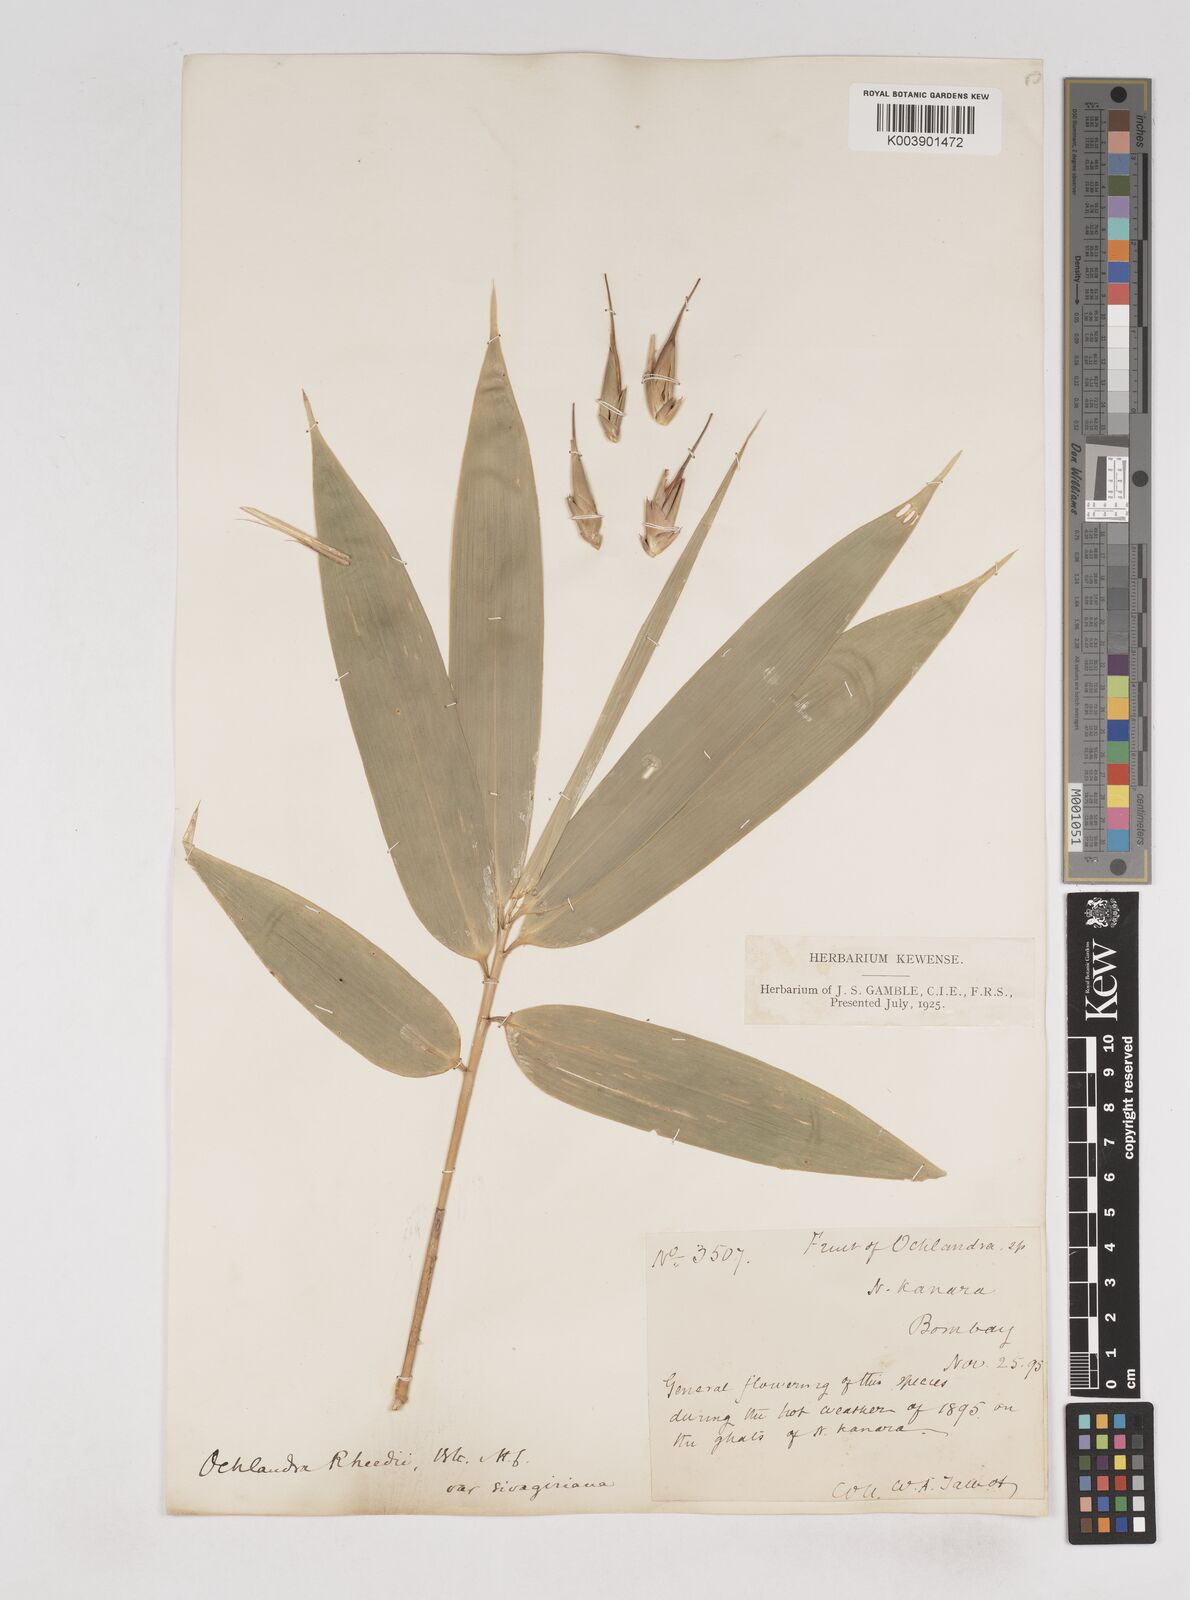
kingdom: Plantae
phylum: Tracheophyta
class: Liliopsida
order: Poales
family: Poaceae
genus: Ochlandra
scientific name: Ochlandra scriptoria
